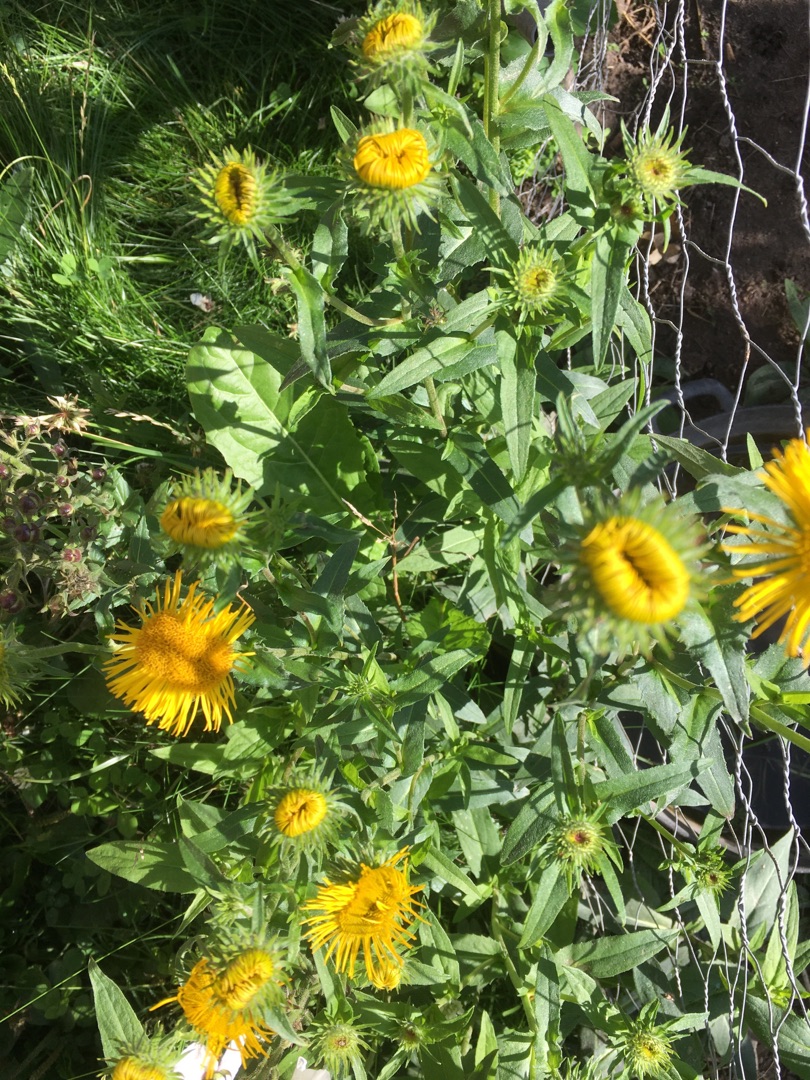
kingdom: Plantae
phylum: Tracheophyta
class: Magnoliopsida
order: Asterales
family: Asteraceae
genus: Pentanema
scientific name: Pentanema britannicum
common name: Soløje-alant
